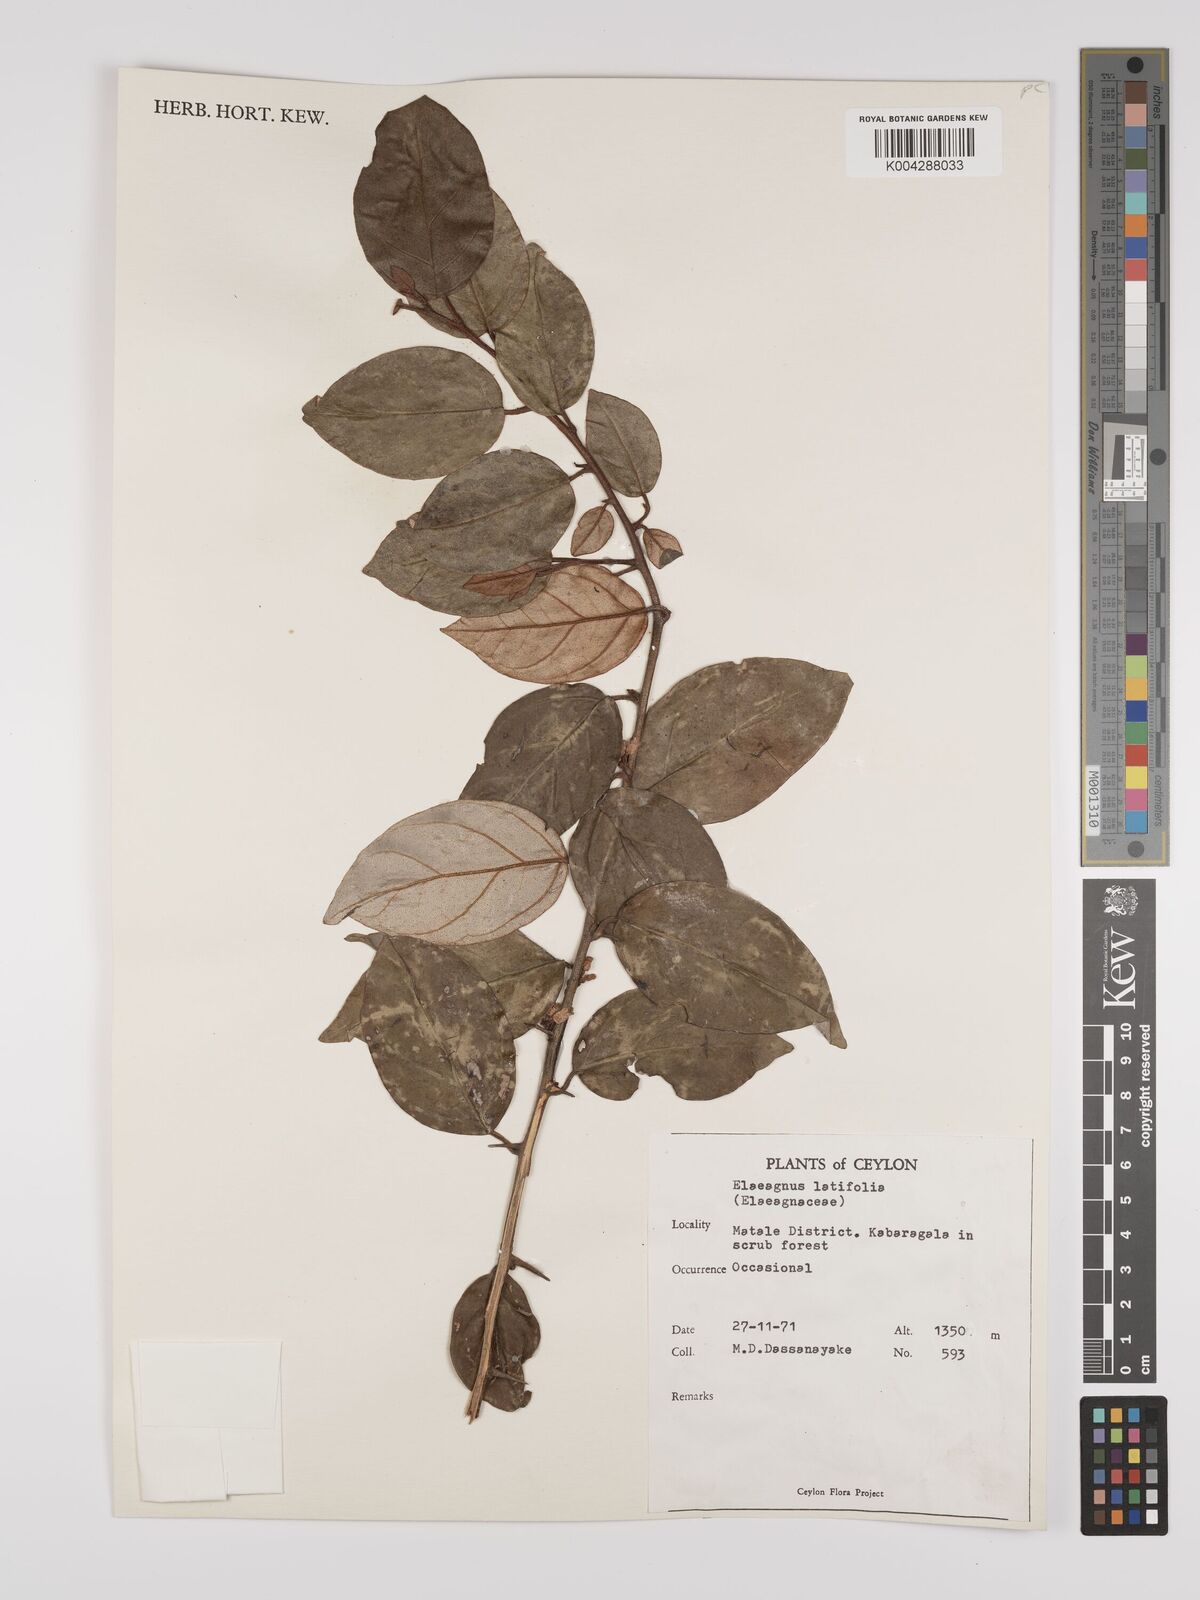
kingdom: Plantae
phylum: Tracheophyta
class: Magnoliopsida
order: Rosales
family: Elaeagnaceae
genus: Elaeagnus
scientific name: Elaeagnus latifolia
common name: Oleaster
